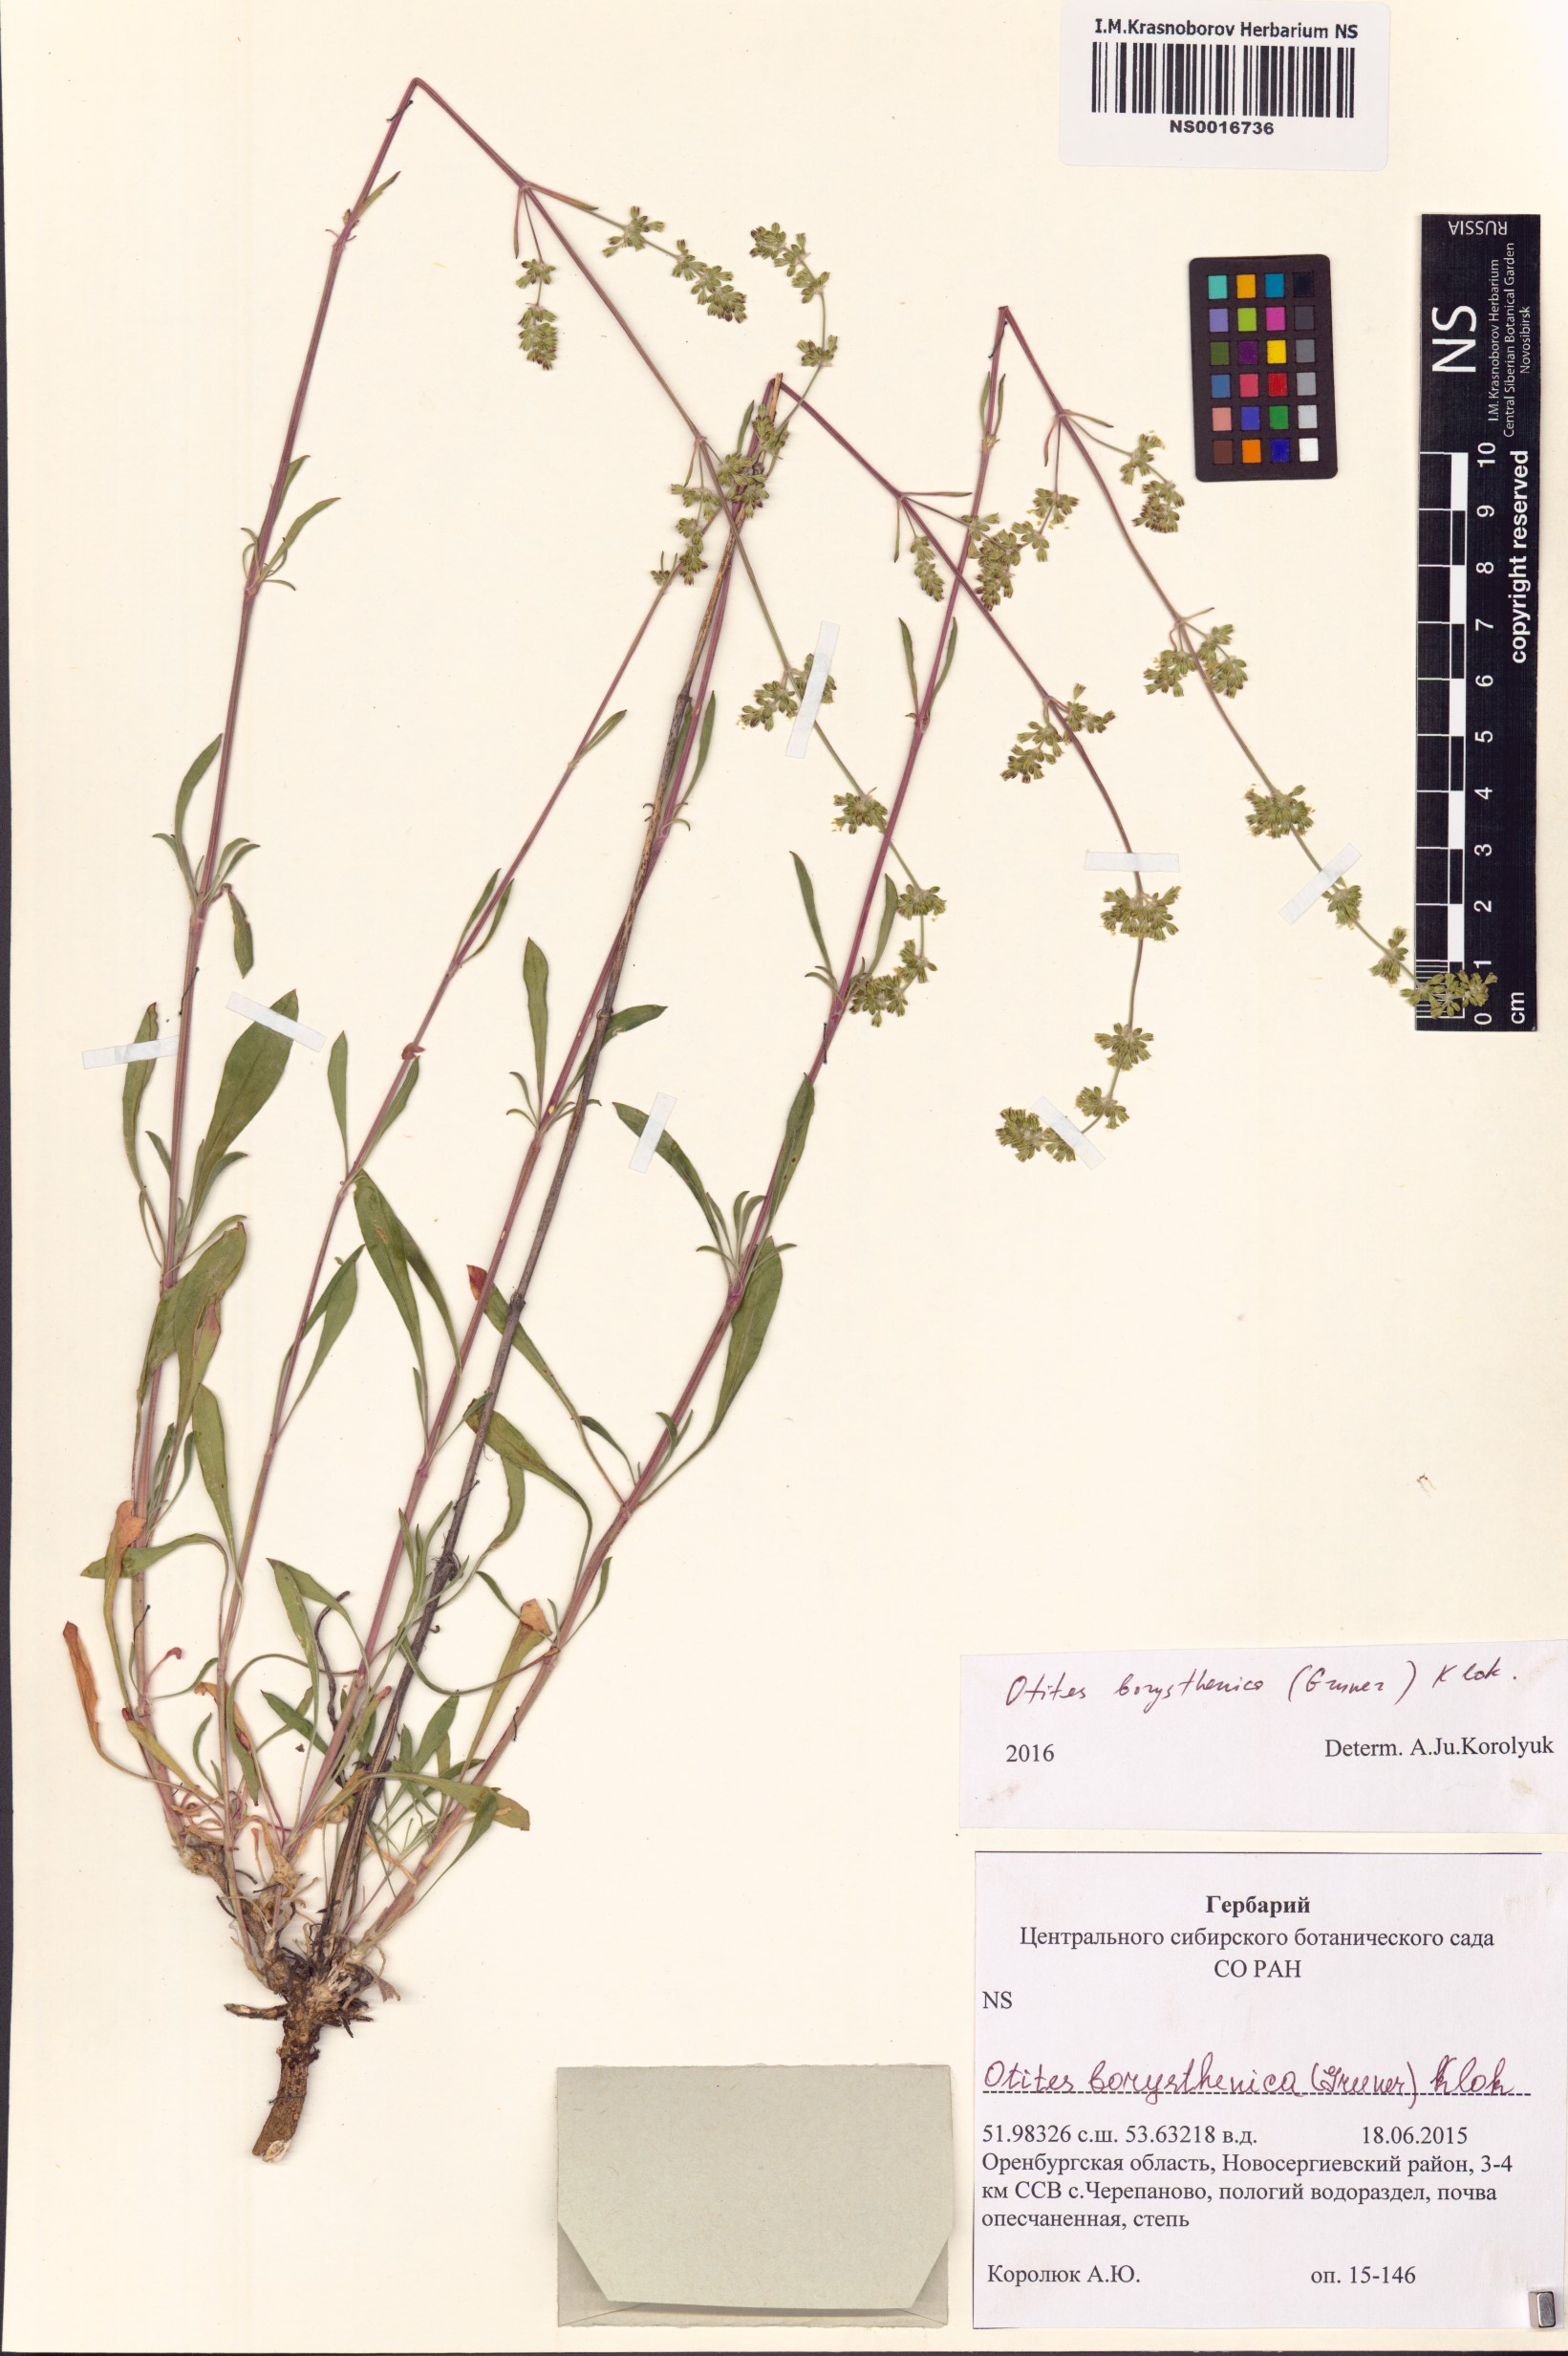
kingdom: Plantae
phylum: Tracheophyta
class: Magnoliopsida
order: Caryophyllales
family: Caryophyllaceae
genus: Silene
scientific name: Silene borysthenica
